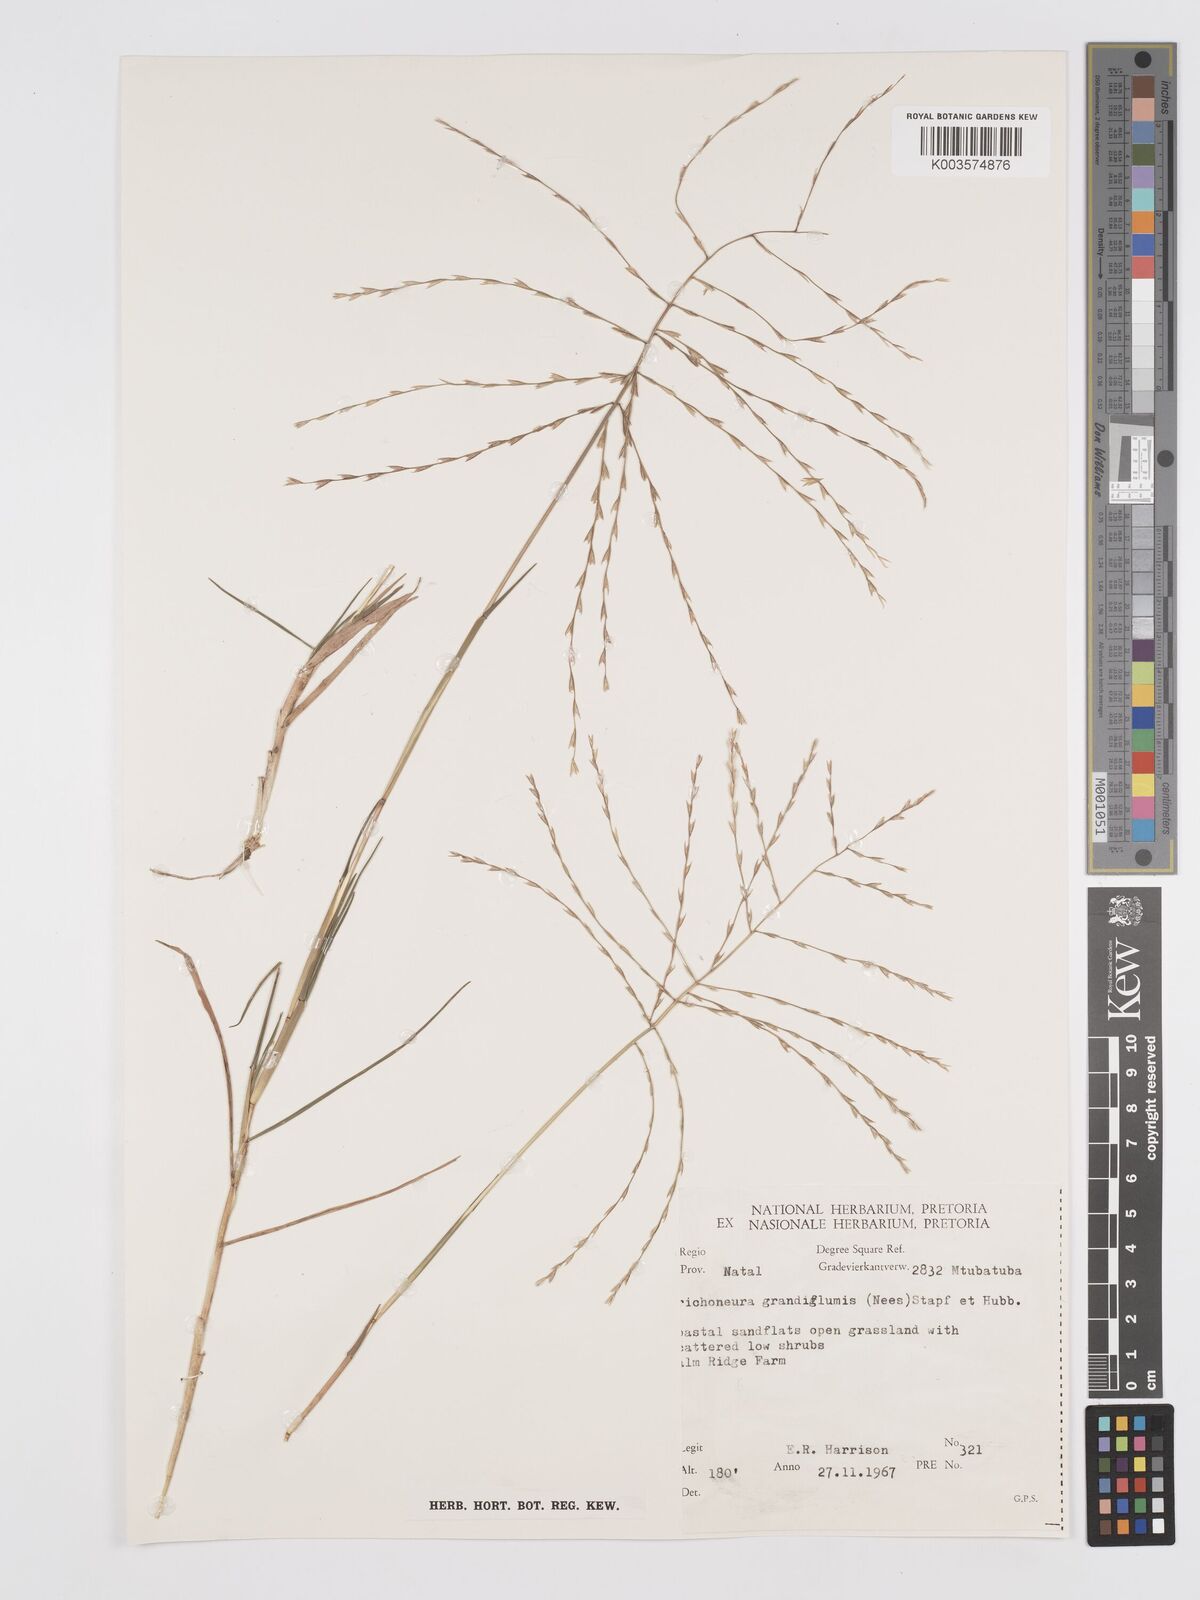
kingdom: Plantae
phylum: Tracheophyta
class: Liliopsida
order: Poales
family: Poaceae
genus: Trichoneura
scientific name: Trichoneura grandiglumis
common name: Rolling grass
